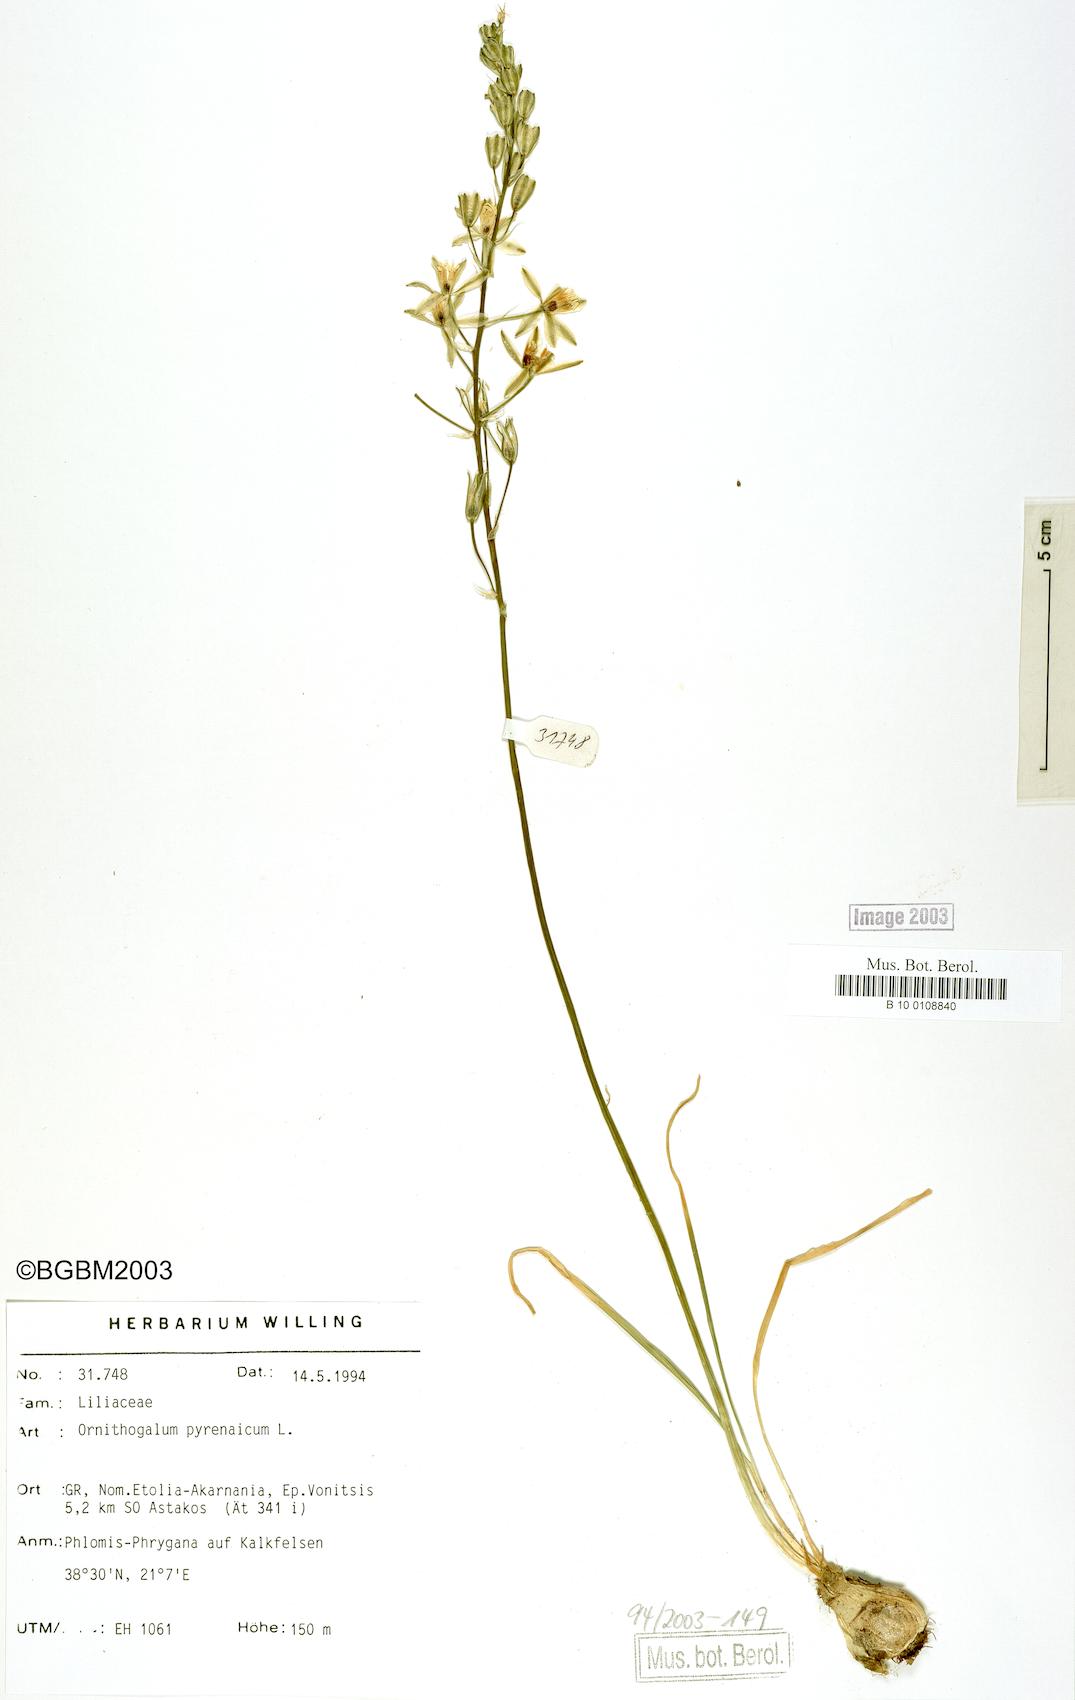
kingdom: Plantae
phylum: Tracheophyta
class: Liliopsida
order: Asparagales
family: Asparagaceae
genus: Ornithogalum
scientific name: Ornithogalum pyrenaicum
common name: Spiked star-of-bethlehem
